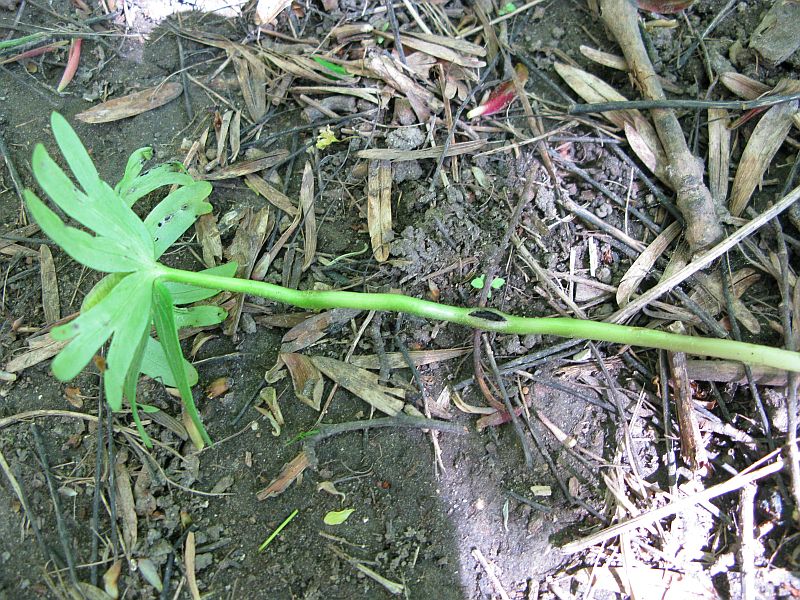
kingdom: Fungi
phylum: Basidiomycota
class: Ustilaginomycetes
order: Urocystidales
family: Urocystidaceae
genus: Urocystis
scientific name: Urocystis eranthidis
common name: erantis-brand
